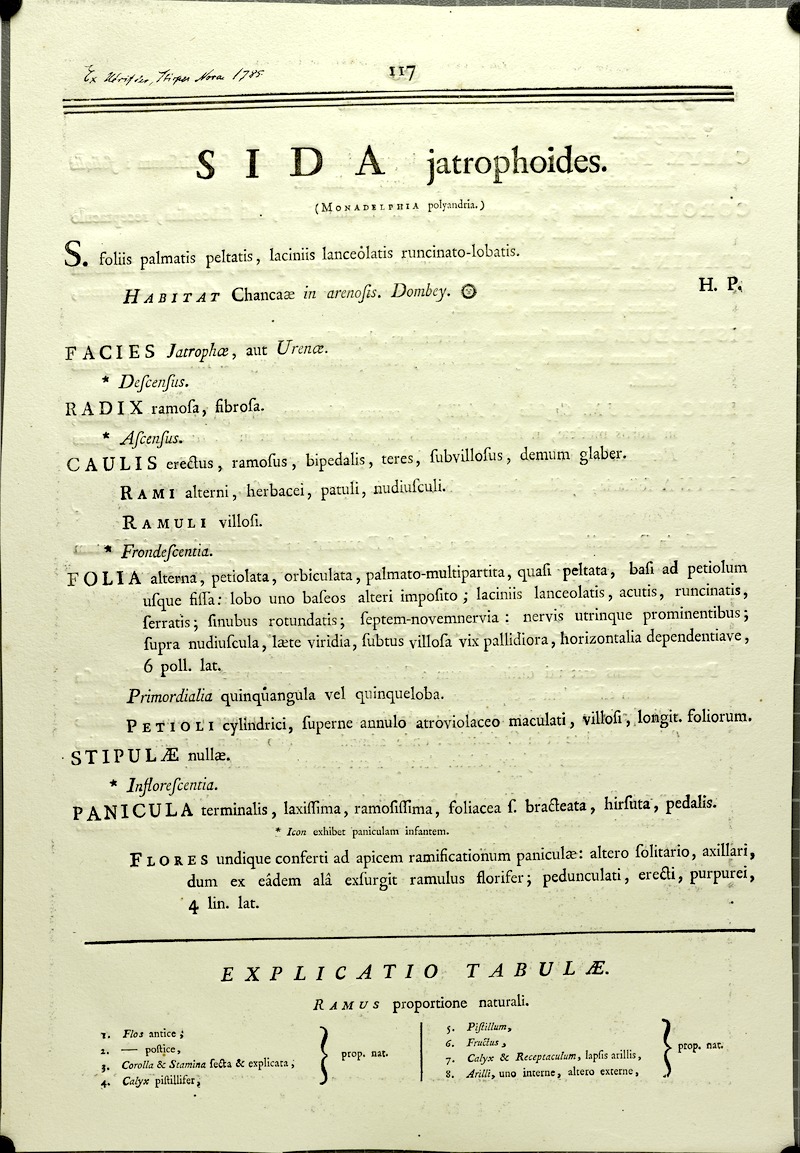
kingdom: Plantae
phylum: Tracheophyta
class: Magnoliopsida
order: Malvales
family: Malvaceae
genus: Sida
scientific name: Sida jatrophoides
